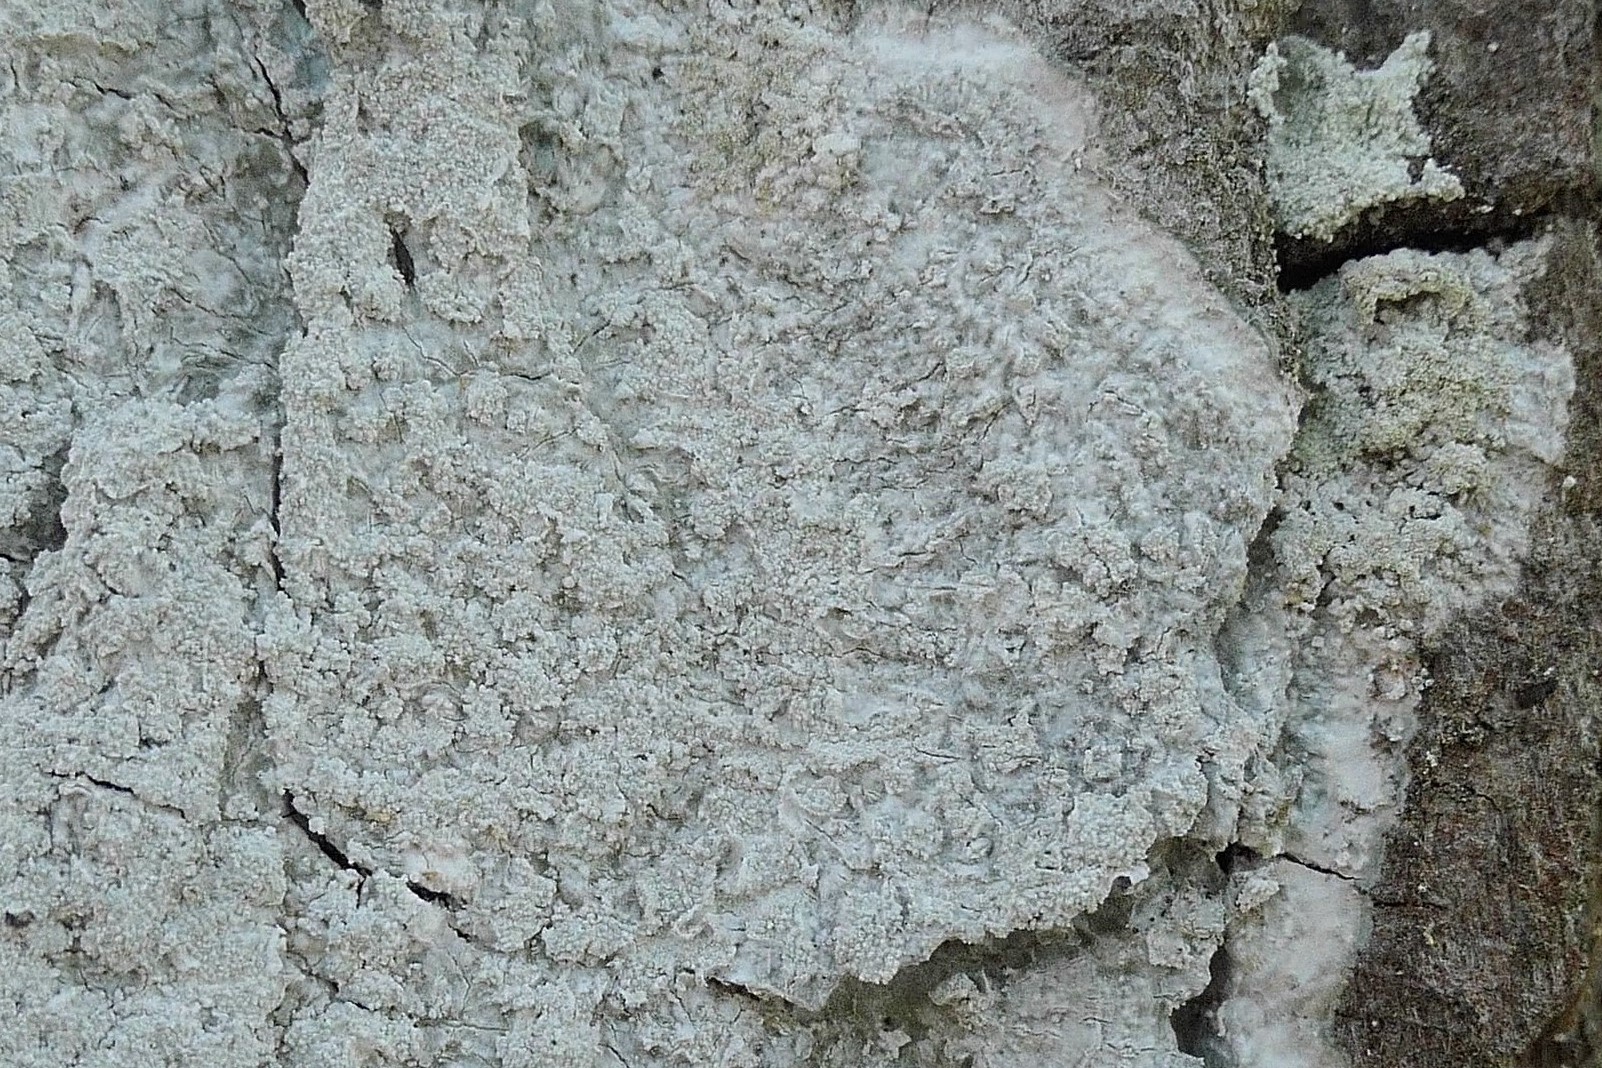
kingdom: Fungi
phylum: Ascomycota
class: Lecanoromycetes
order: Pertusariales
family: Pertusariaceae
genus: Lepra
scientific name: Lepra albescens
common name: hvidmelet prikvortelav
